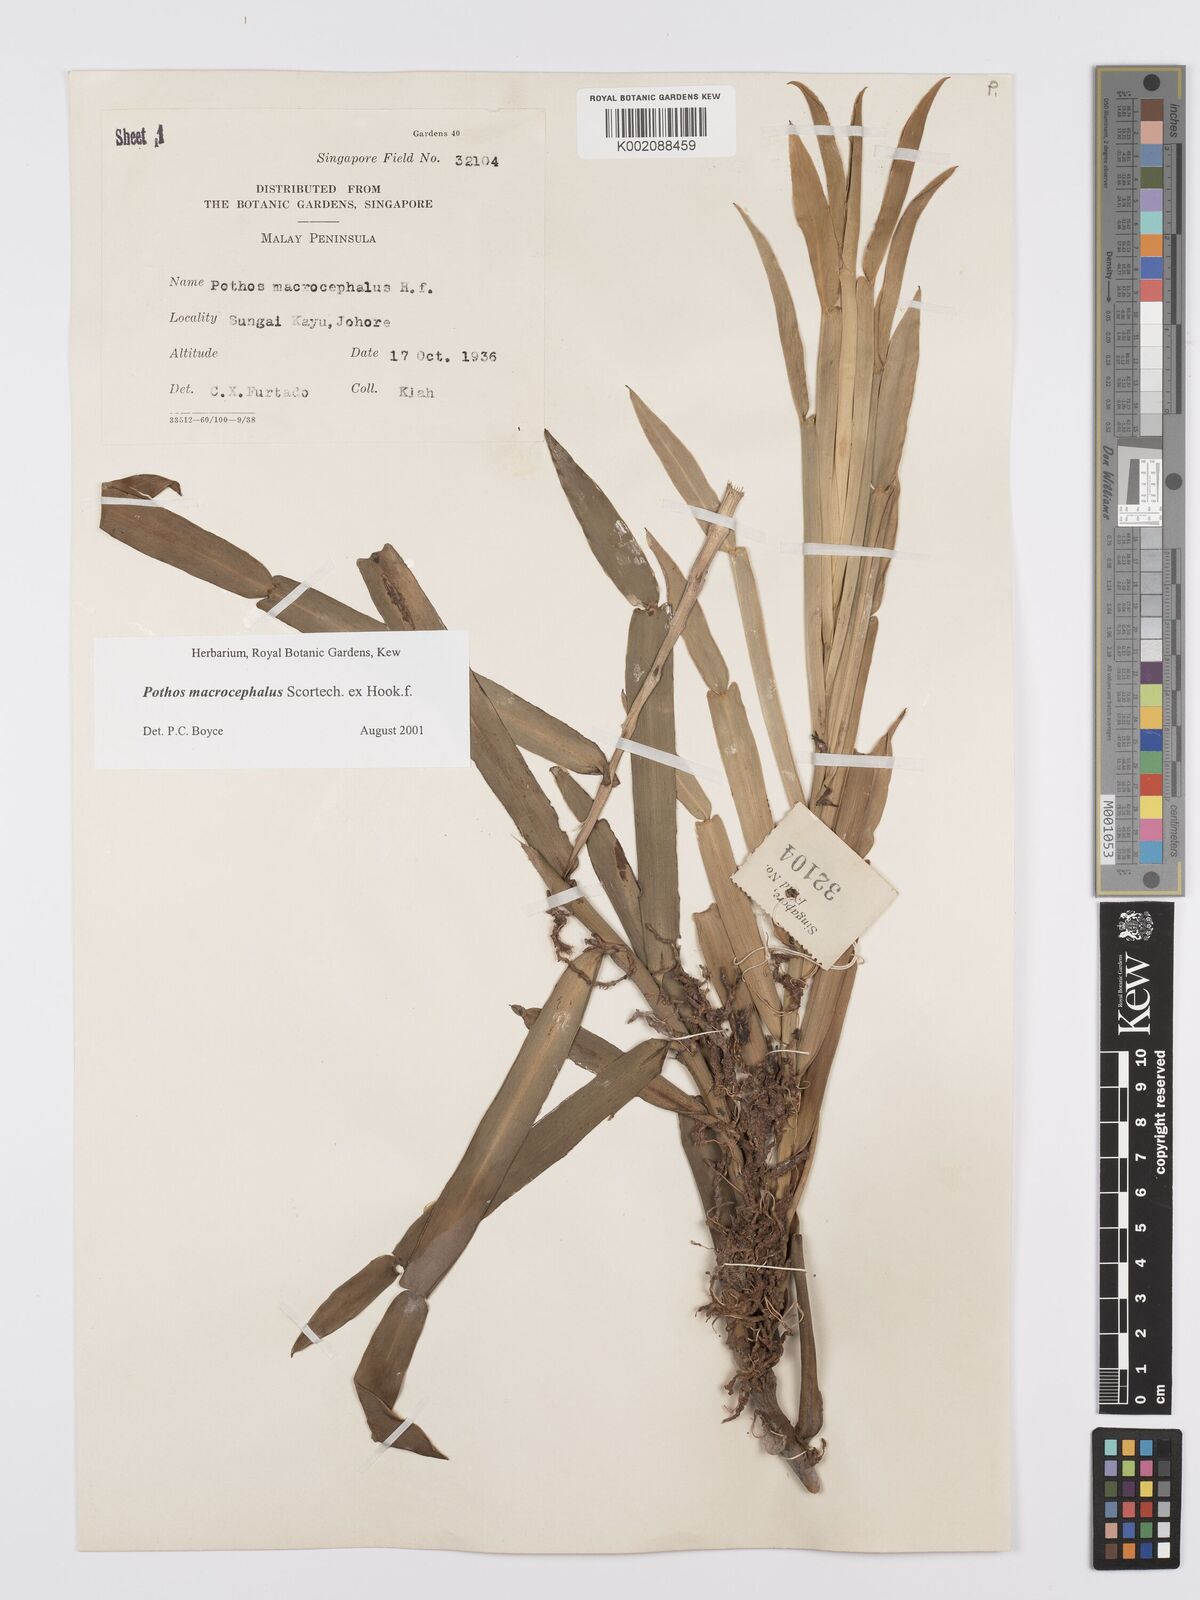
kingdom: Plantae
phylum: Tracheophyta
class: Liliopsida
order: Alismatales
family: Araceae
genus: Pothos
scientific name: Pothos macrocephalus
